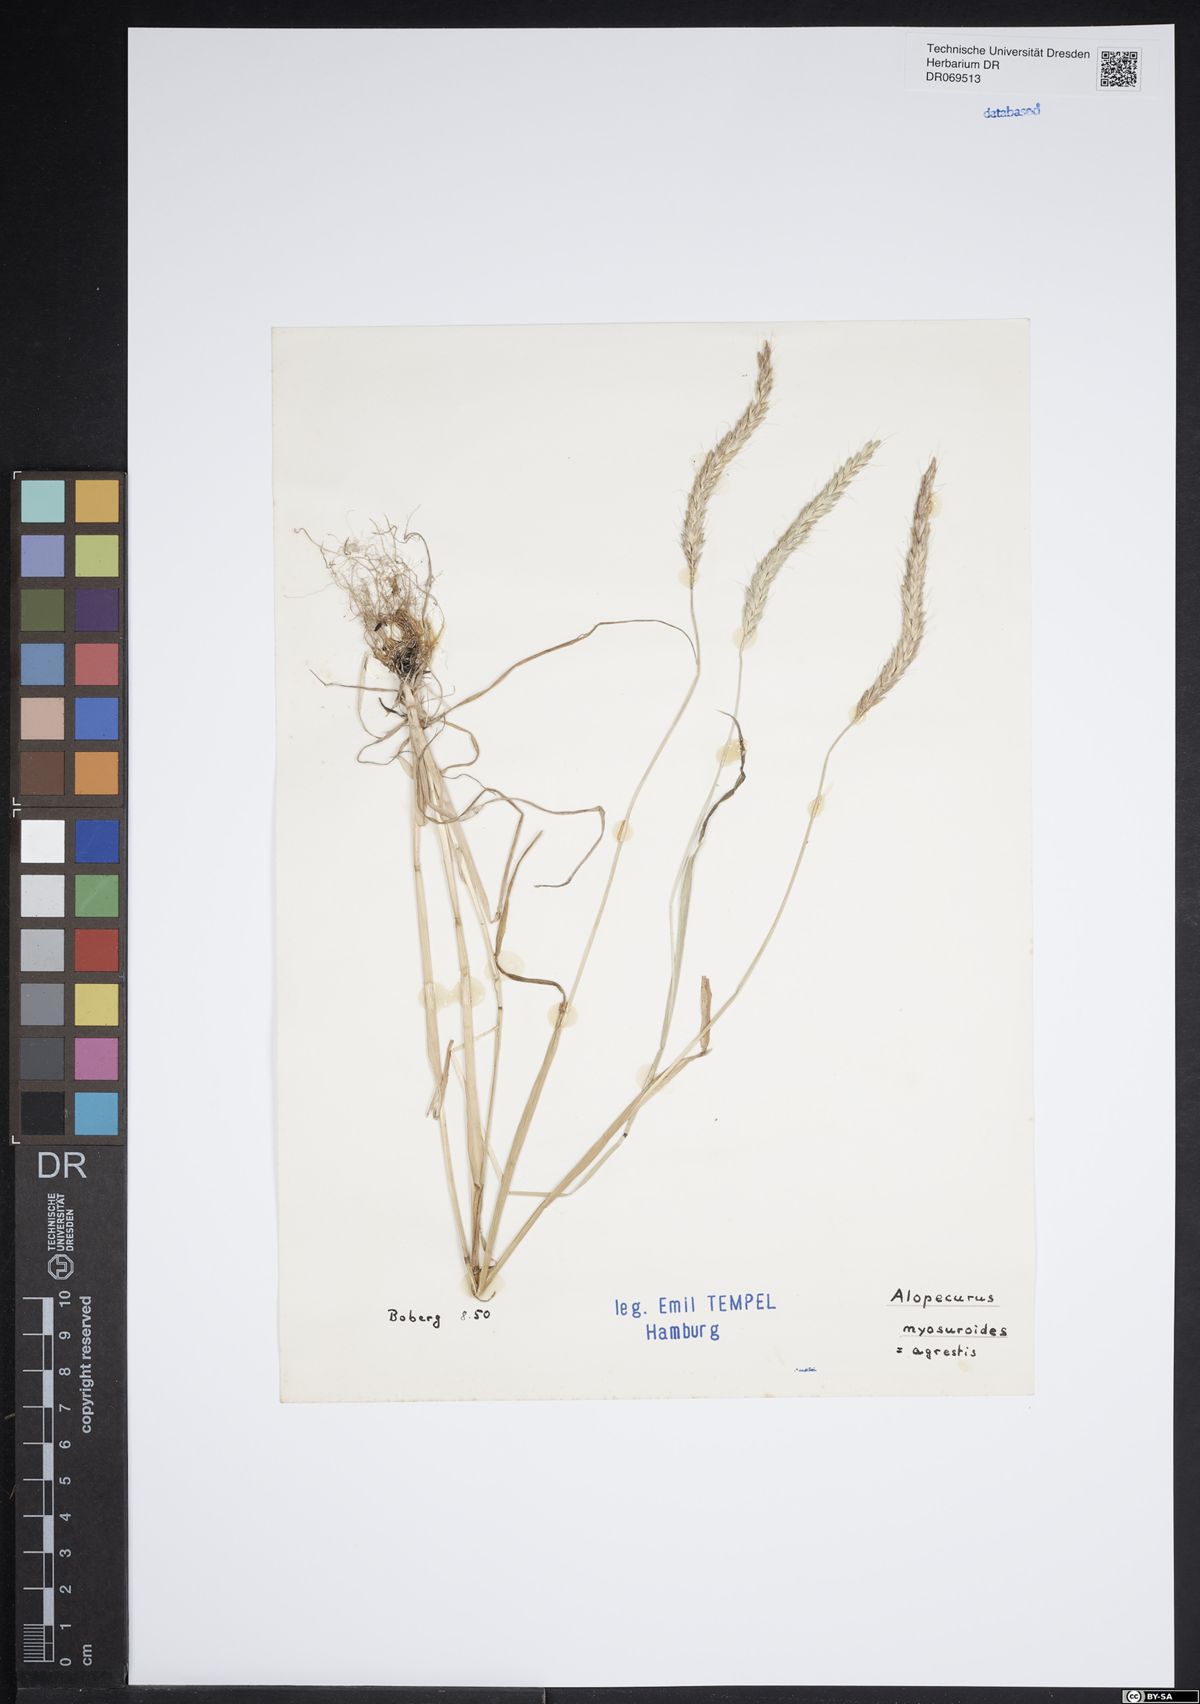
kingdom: Plantae
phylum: Tracheophyta
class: Liliopsida
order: Poales
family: Poaceae
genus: Alopecurus
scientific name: Alopecurus myosuroides
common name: Black-grass
